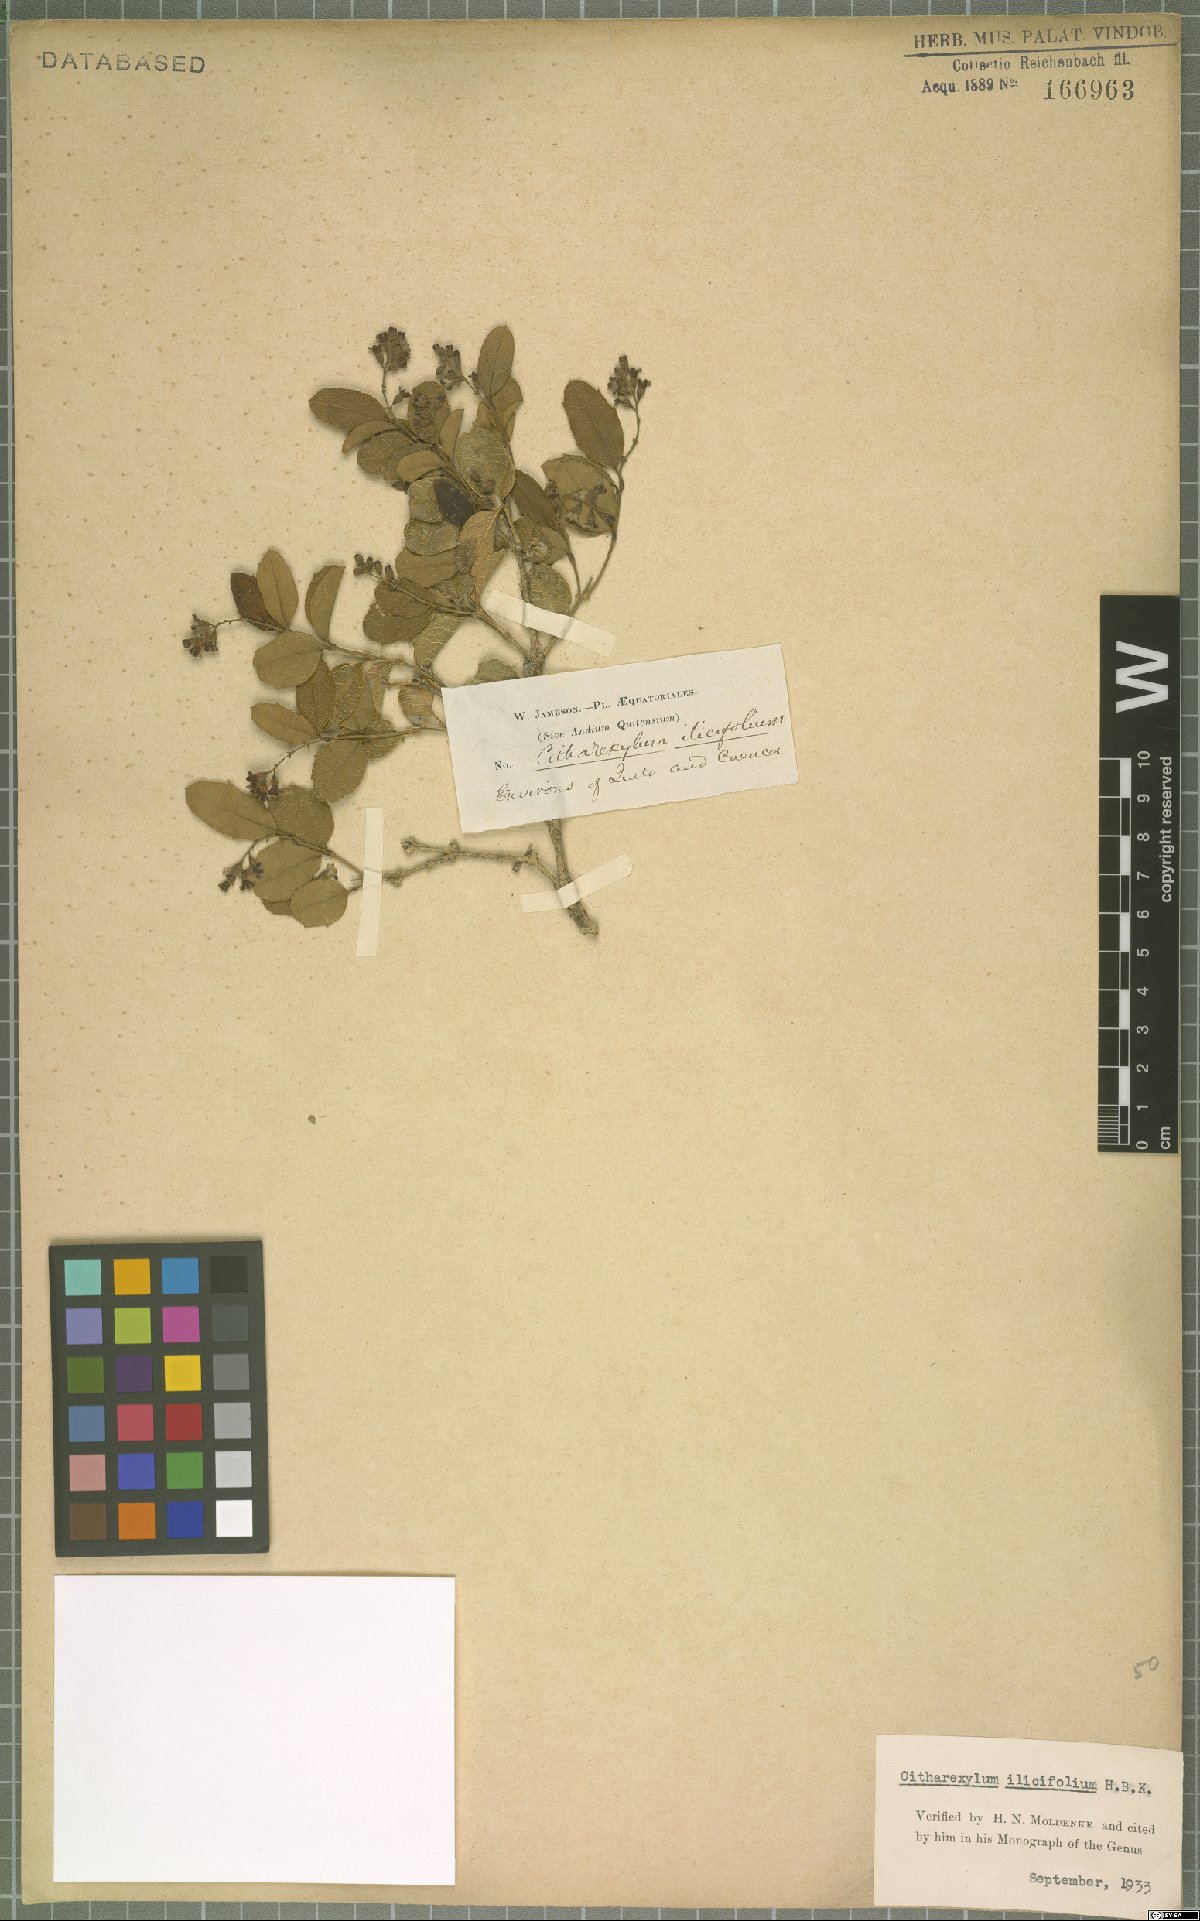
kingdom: Plantae
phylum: Tracheophyta
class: Magnoliopsida
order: Lamiales
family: Verbenaceae
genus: Citharexylum
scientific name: Citharexylum ilicifolium
